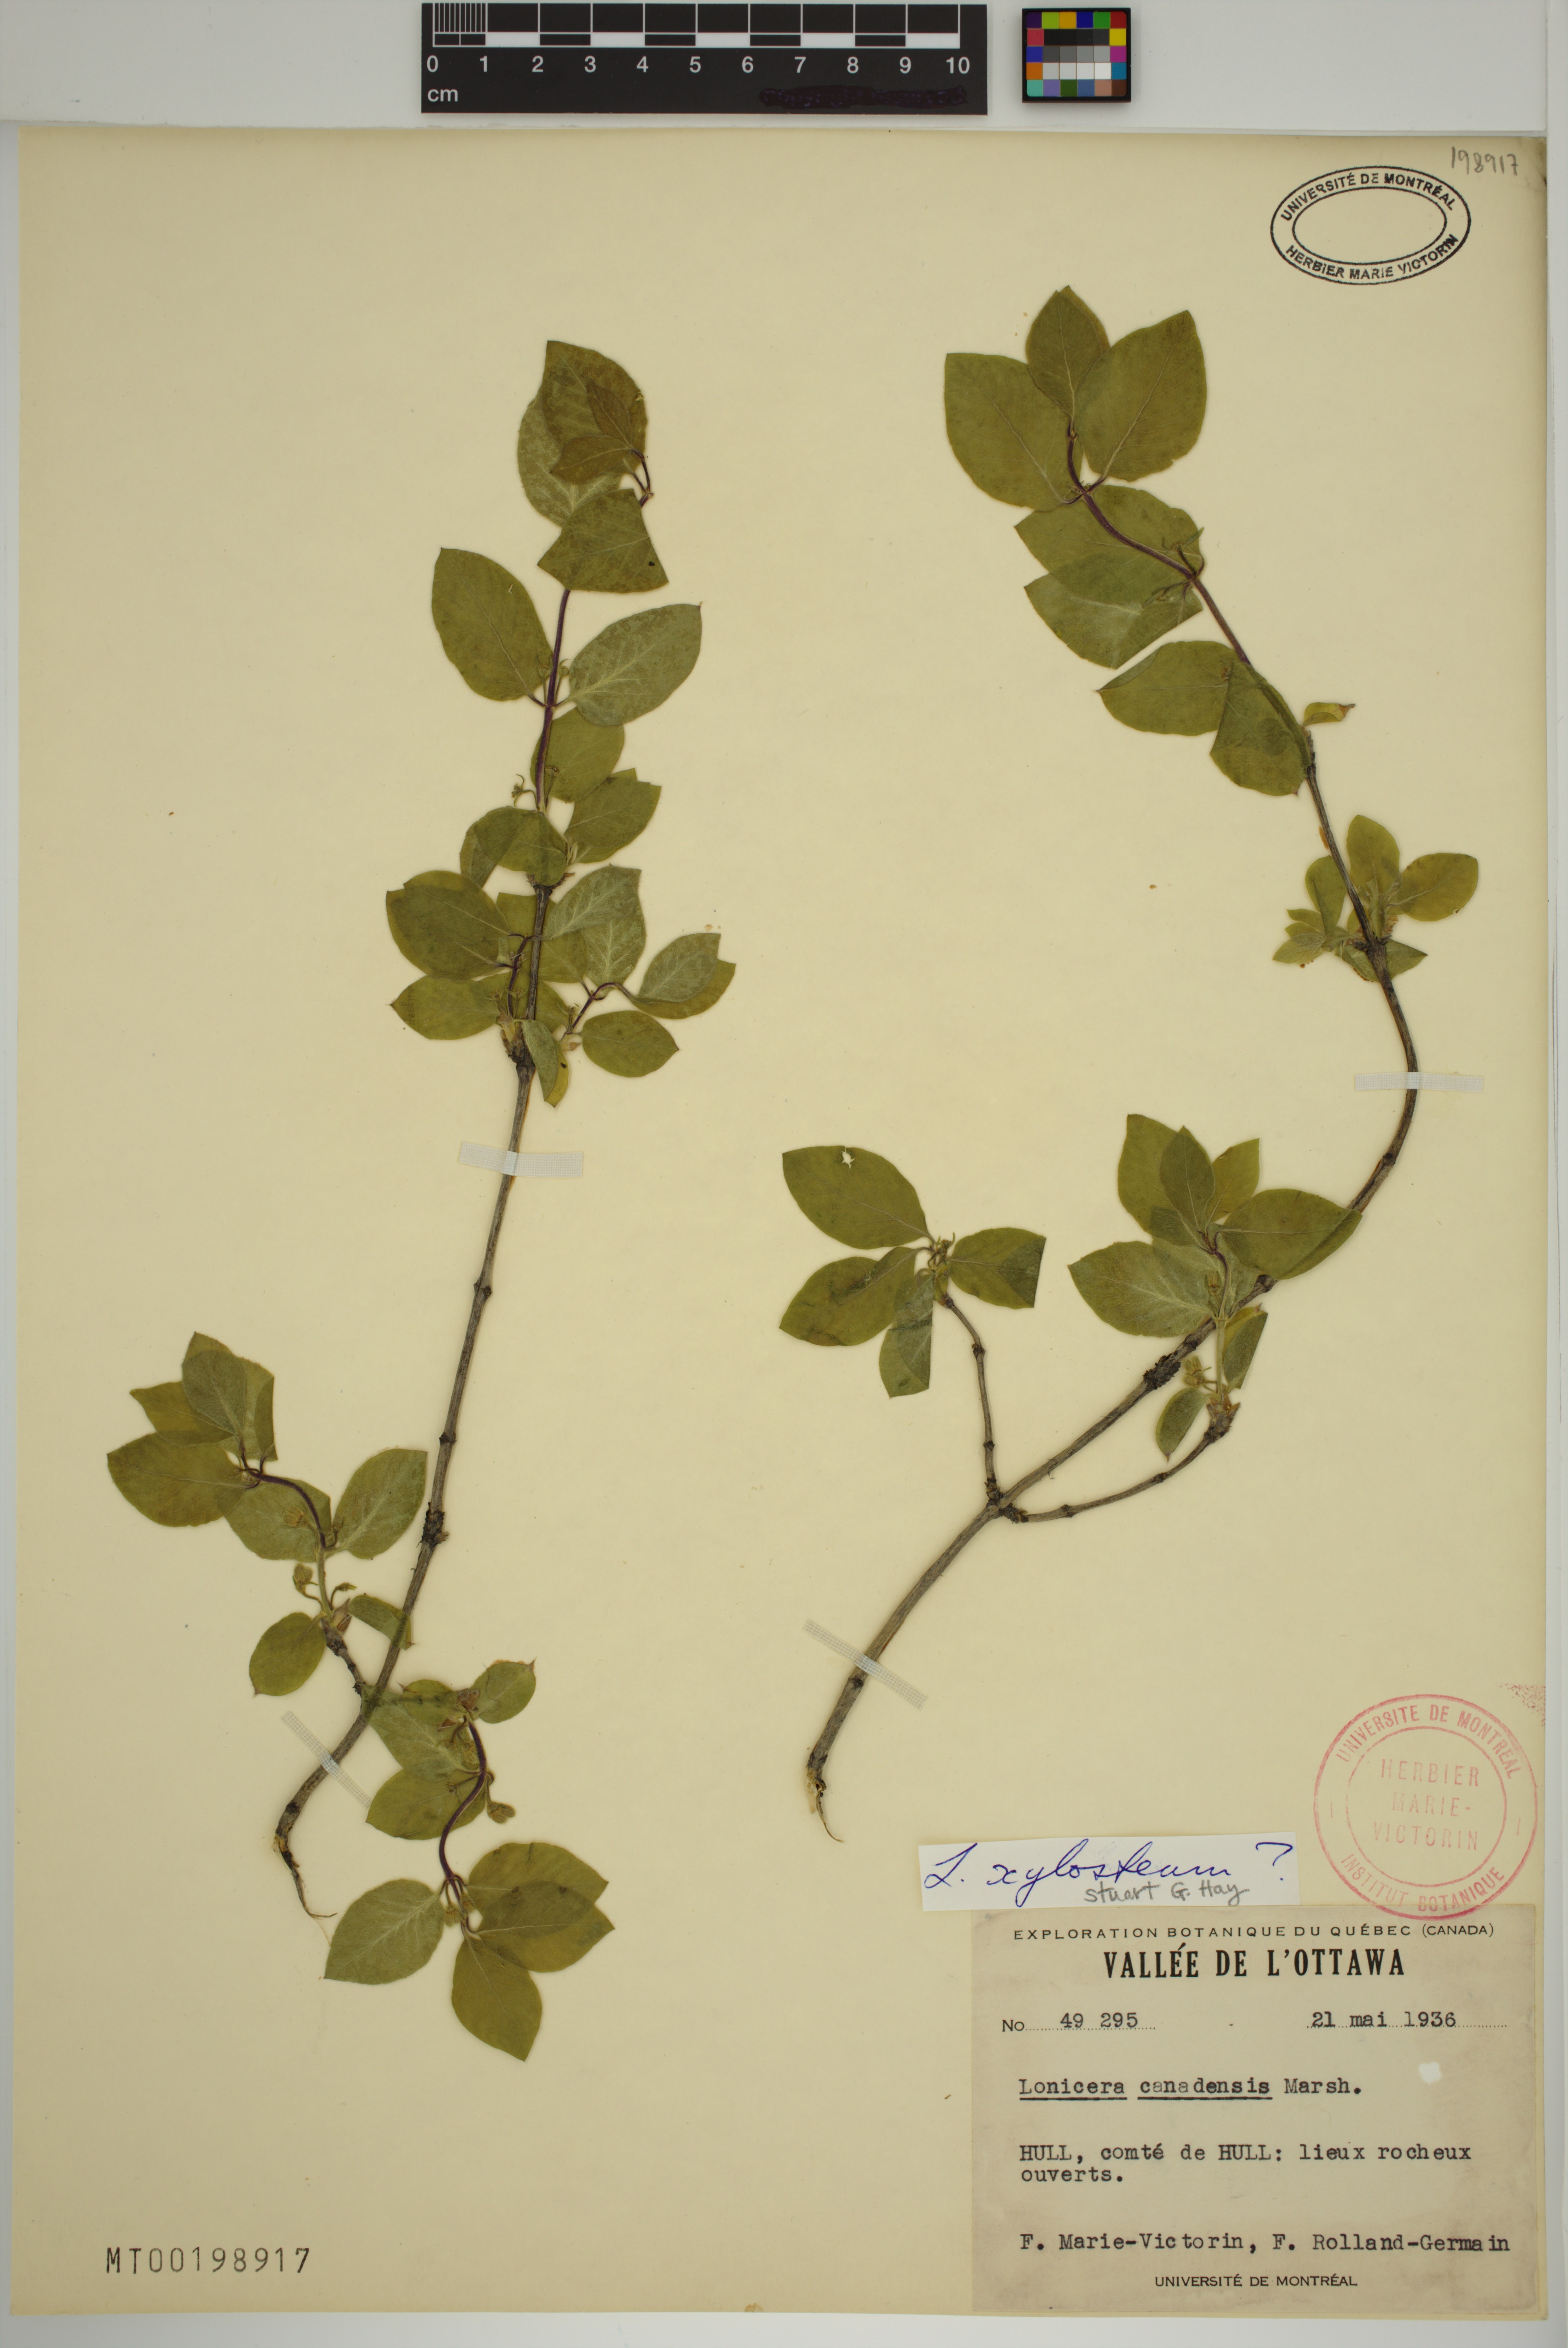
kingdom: Plantae
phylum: Tracheophyta
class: Magnoliopsida
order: Dipsacales
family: Caprifoliaceae
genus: Lonicera
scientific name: Lonicera xylosteum
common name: Fly honeysuckle
